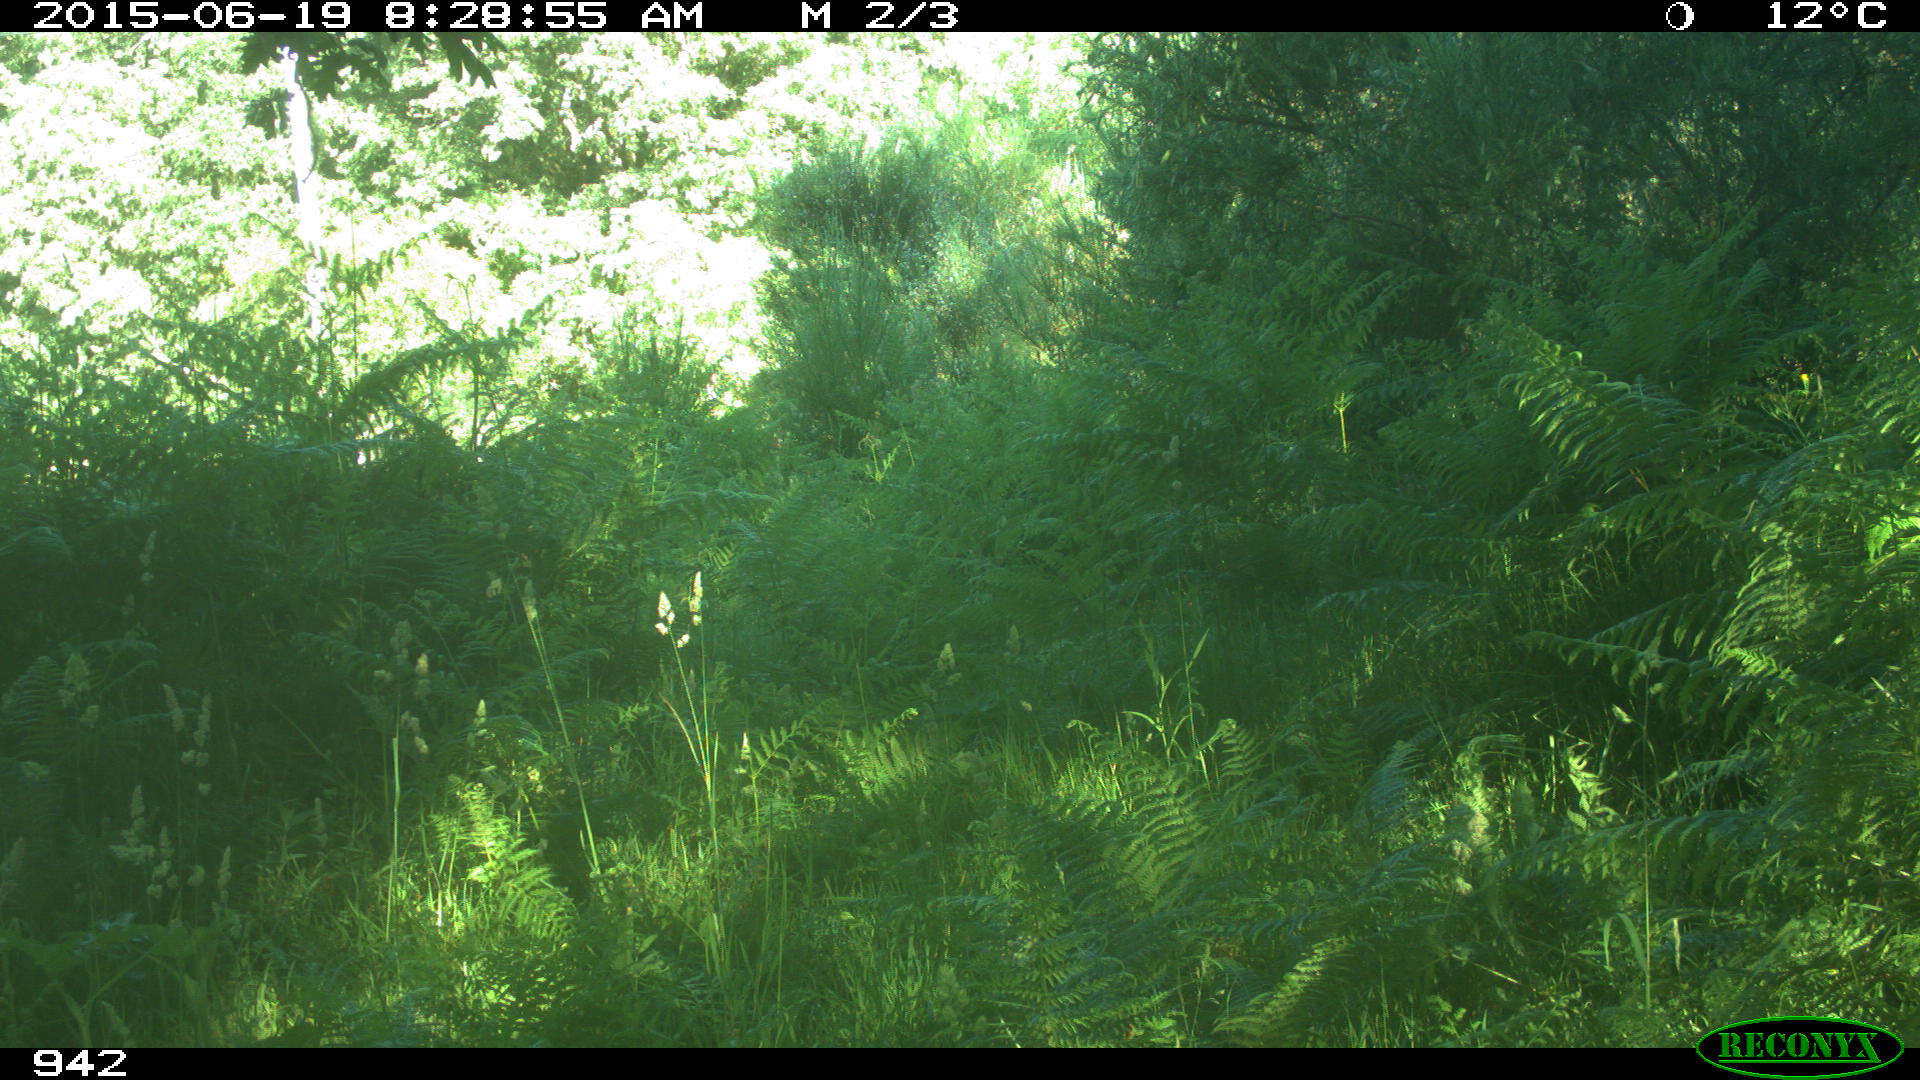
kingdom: Animalia
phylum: Chordata
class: Mammalia
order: Artiodactyla
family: Cervidae
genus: Capreolus
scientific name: Capreolus capreolus
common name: Western roe deer
